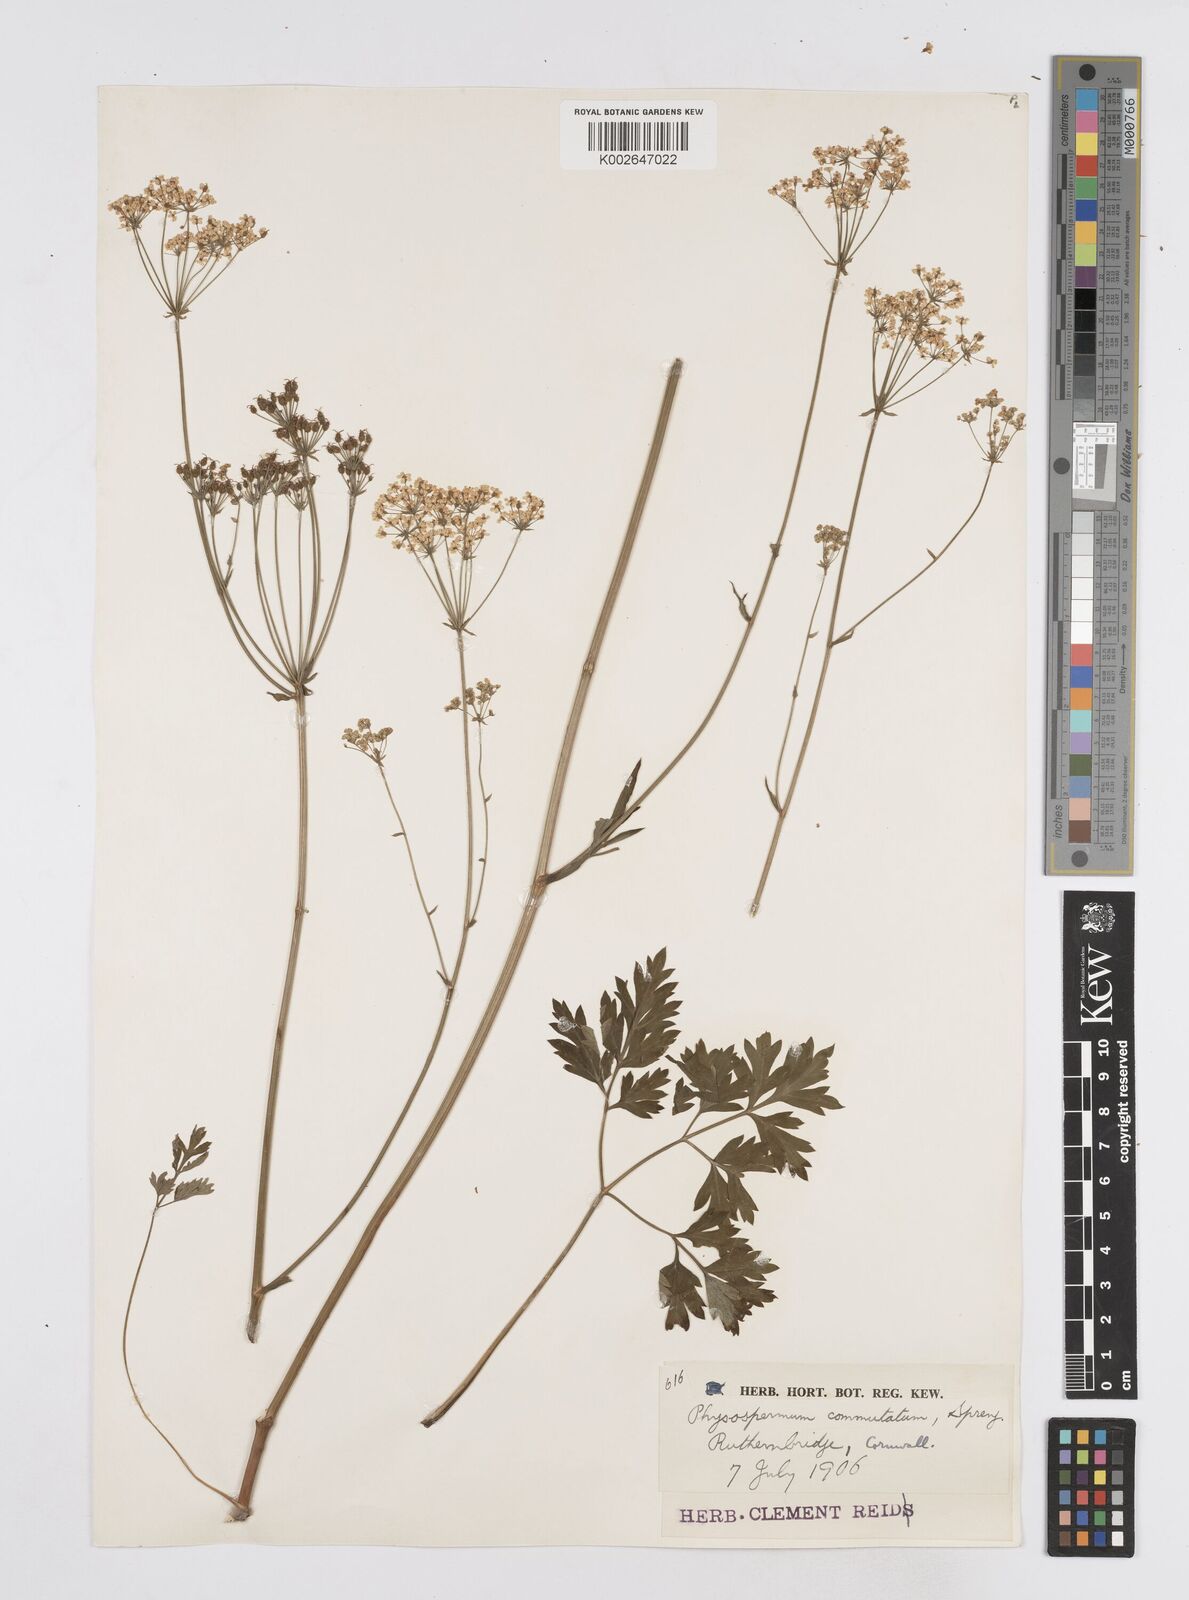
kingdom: Plantae
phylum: Tracheophyta
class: Magnoliopsida
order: Apiales
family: Apiaceae
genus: Physospermum
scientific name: Physospermum cornubiense
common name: Bladderseed
